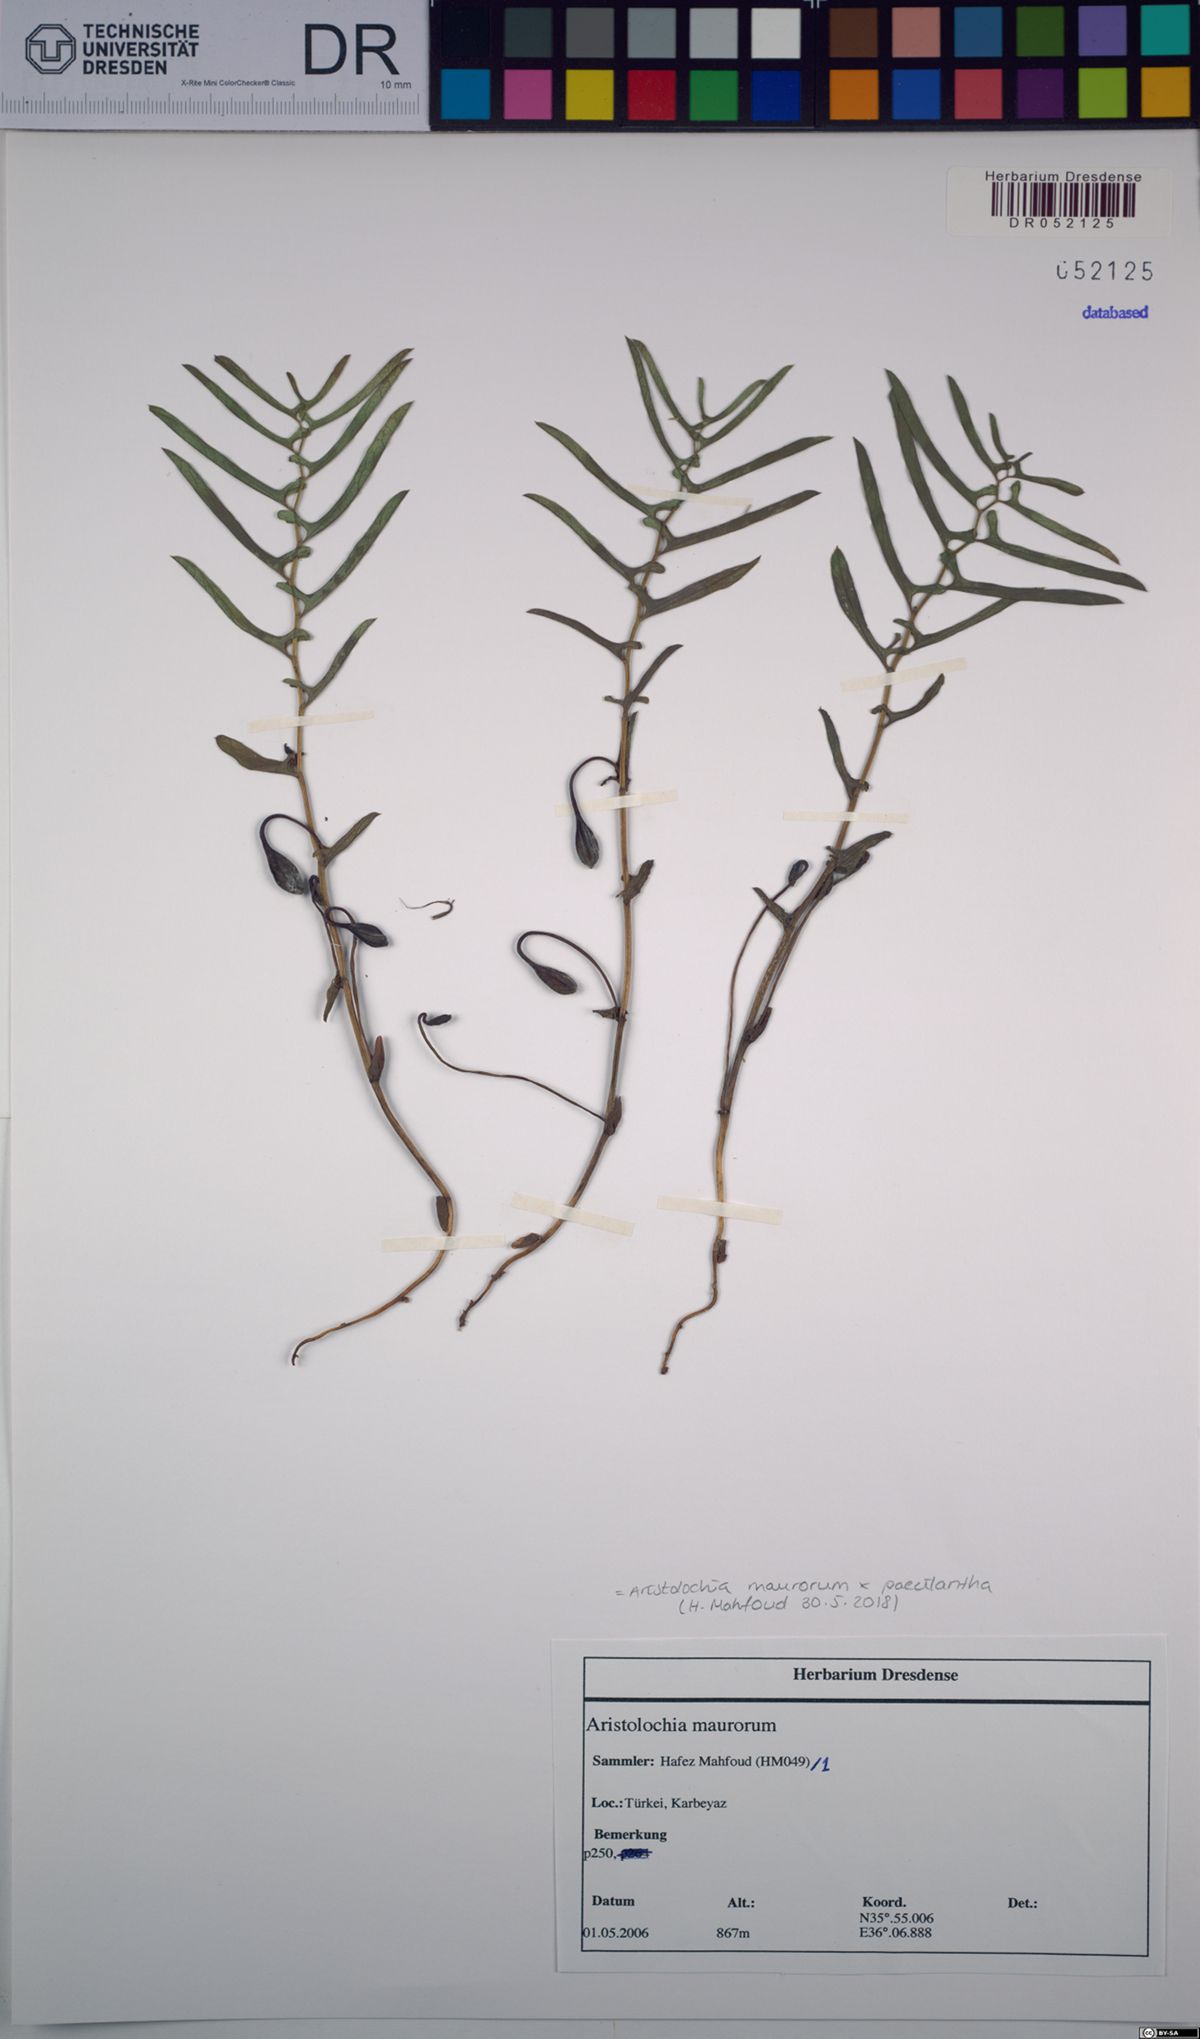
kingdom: Plantae
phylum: Tracheophyta
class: Magnoliopsida
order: Piperales
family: Aristolochiaceae
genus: Aristolochia
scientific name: Aristolochia maurorum
